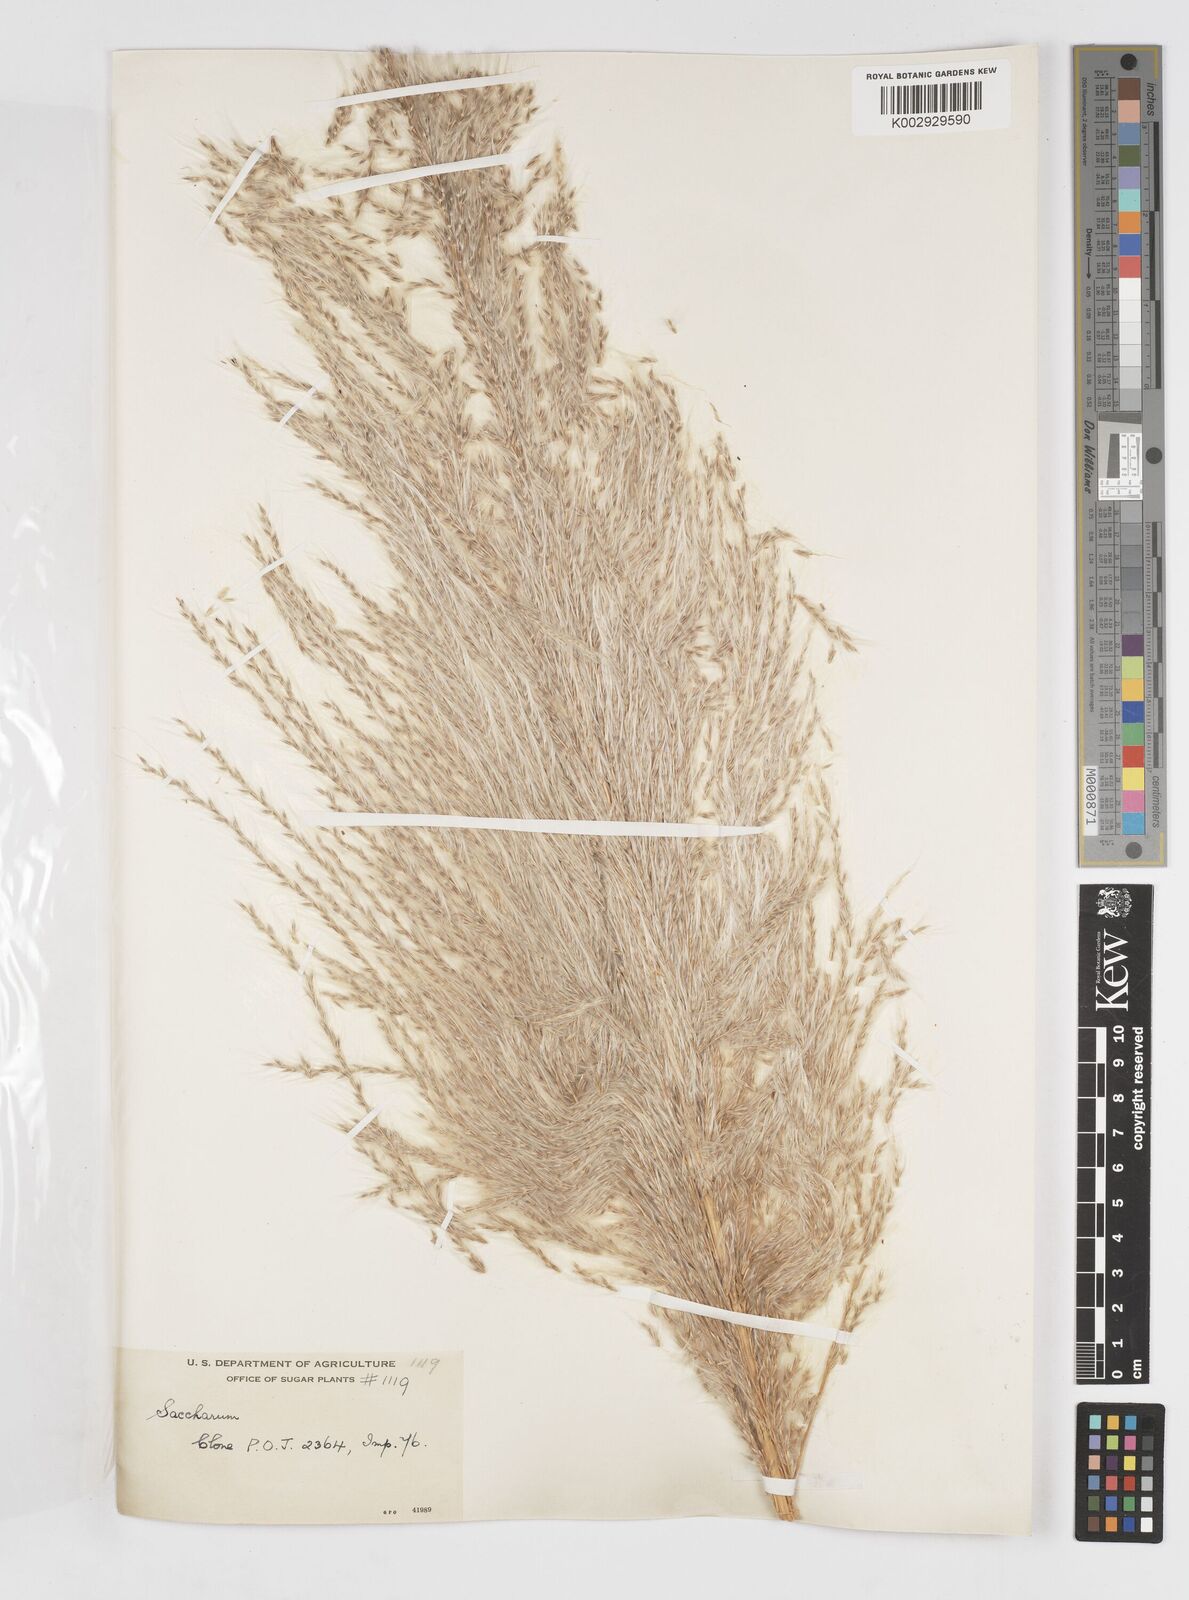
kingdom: Plantae
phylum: Tracheophyta
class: Liliopsida
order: Poales
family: Poaceae
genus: Saccharum
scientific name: Saccharum officinarum
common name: Sugarcane
